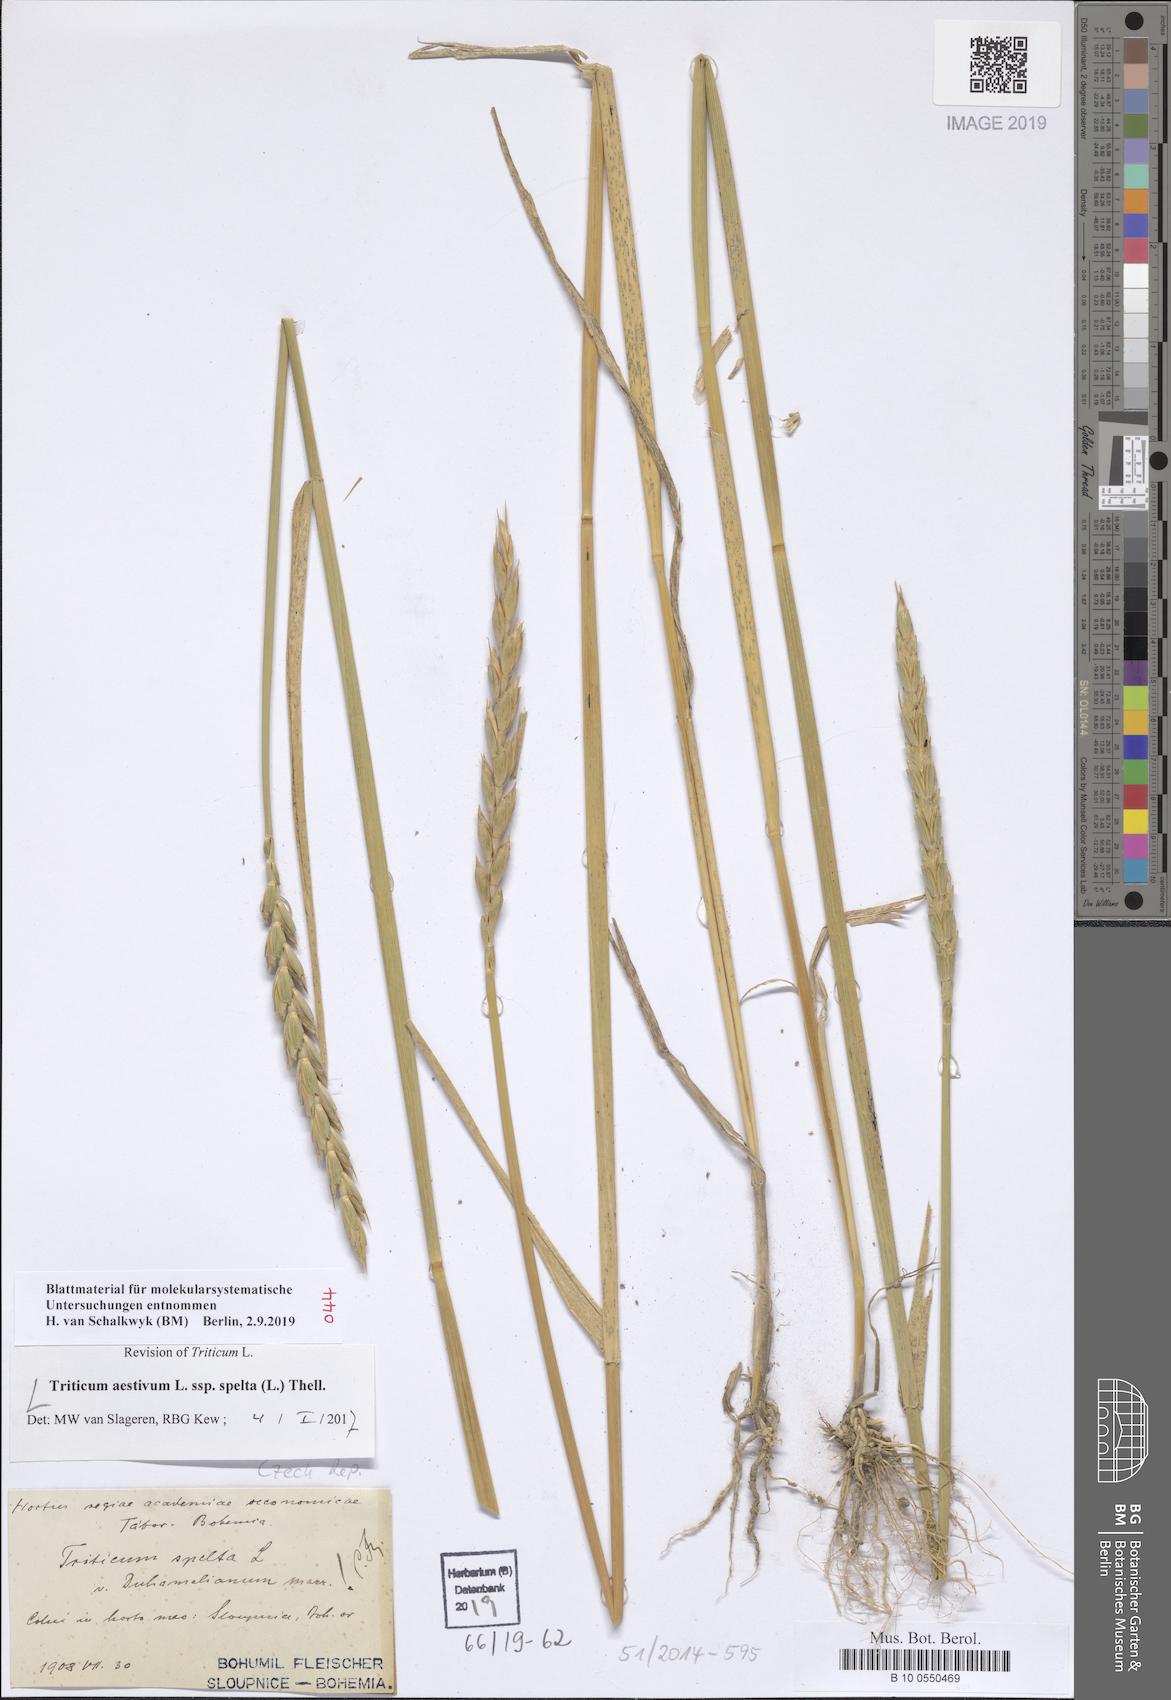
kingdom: Plantae
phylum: Tracheophyta
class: Liliopsida
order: Poales
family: Poaceae
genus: Triticum
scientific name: Triticum aestivum
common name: Common wheat
